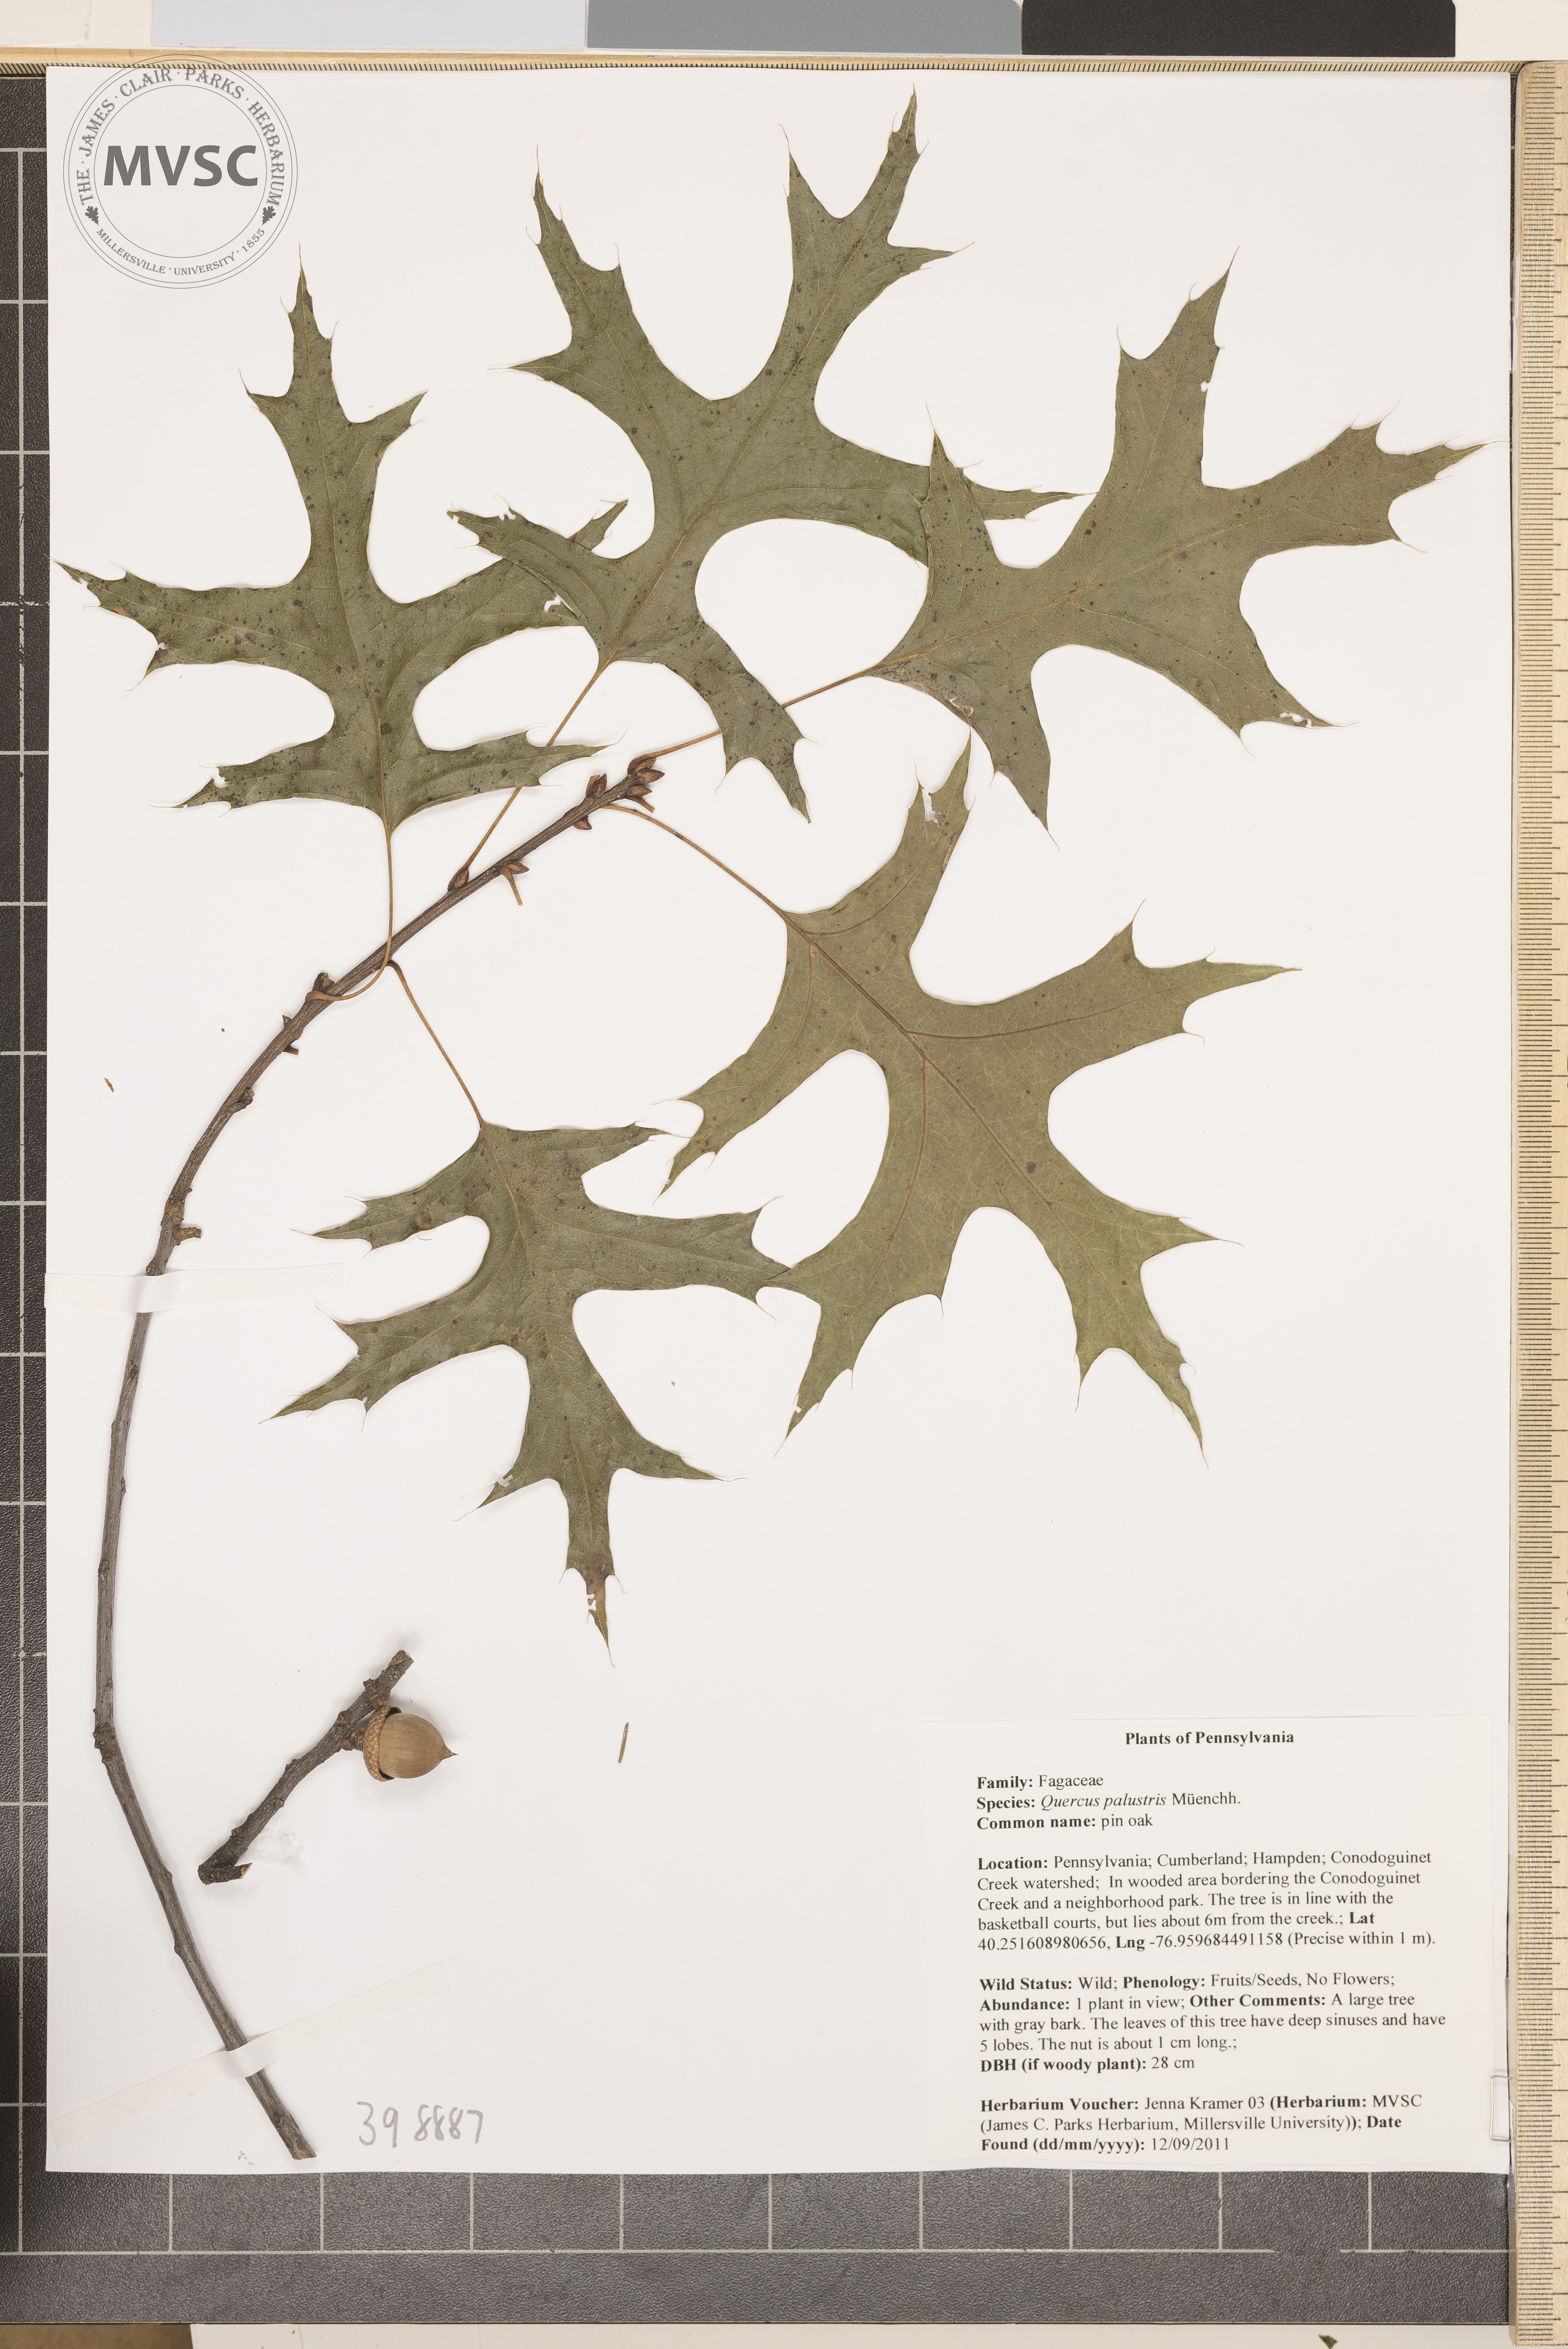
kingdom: Plantae
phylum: Tracheophyta
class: Magnoliopsida
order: Fagales
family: Fagaceae
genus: Quercus
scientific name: Quercus palustris
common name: Pin oak
